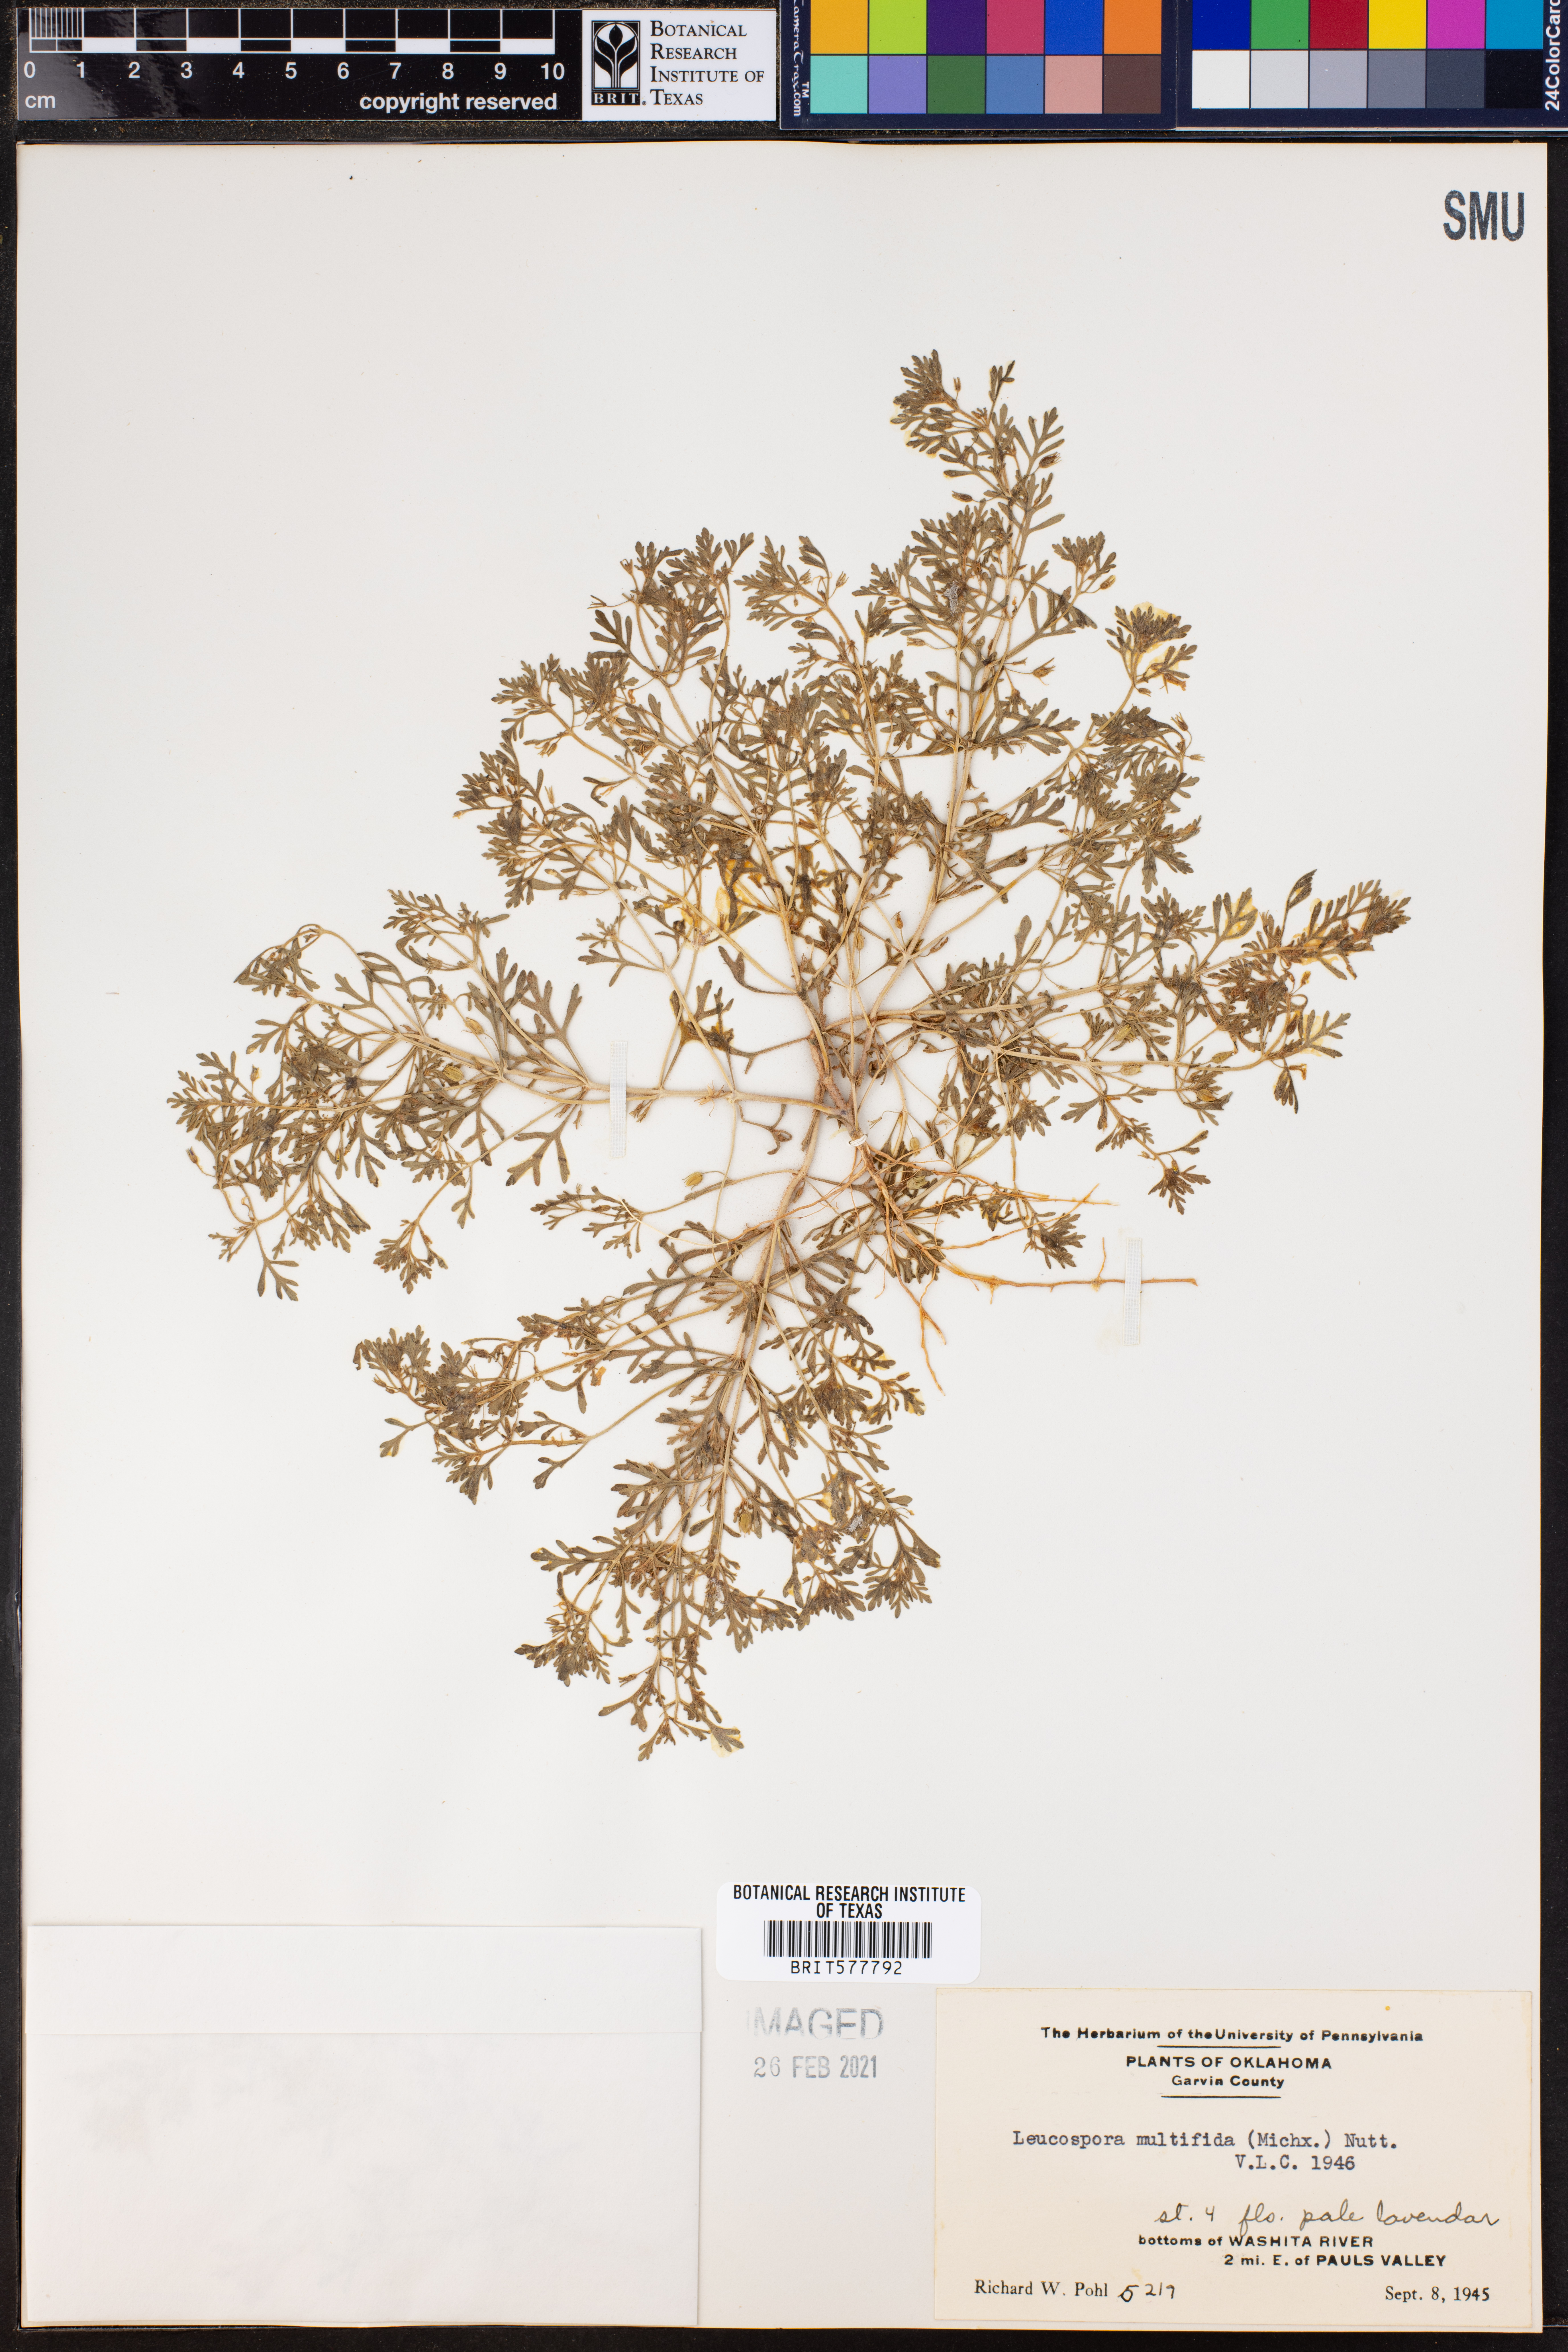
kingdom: Plantae
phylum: Tracheophyta
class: Magnoliopsida
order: Lamiales
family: Plantaginaceae
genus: Leucospora
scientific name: Leucospora multifida
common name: Narrow-leaf paleseed
